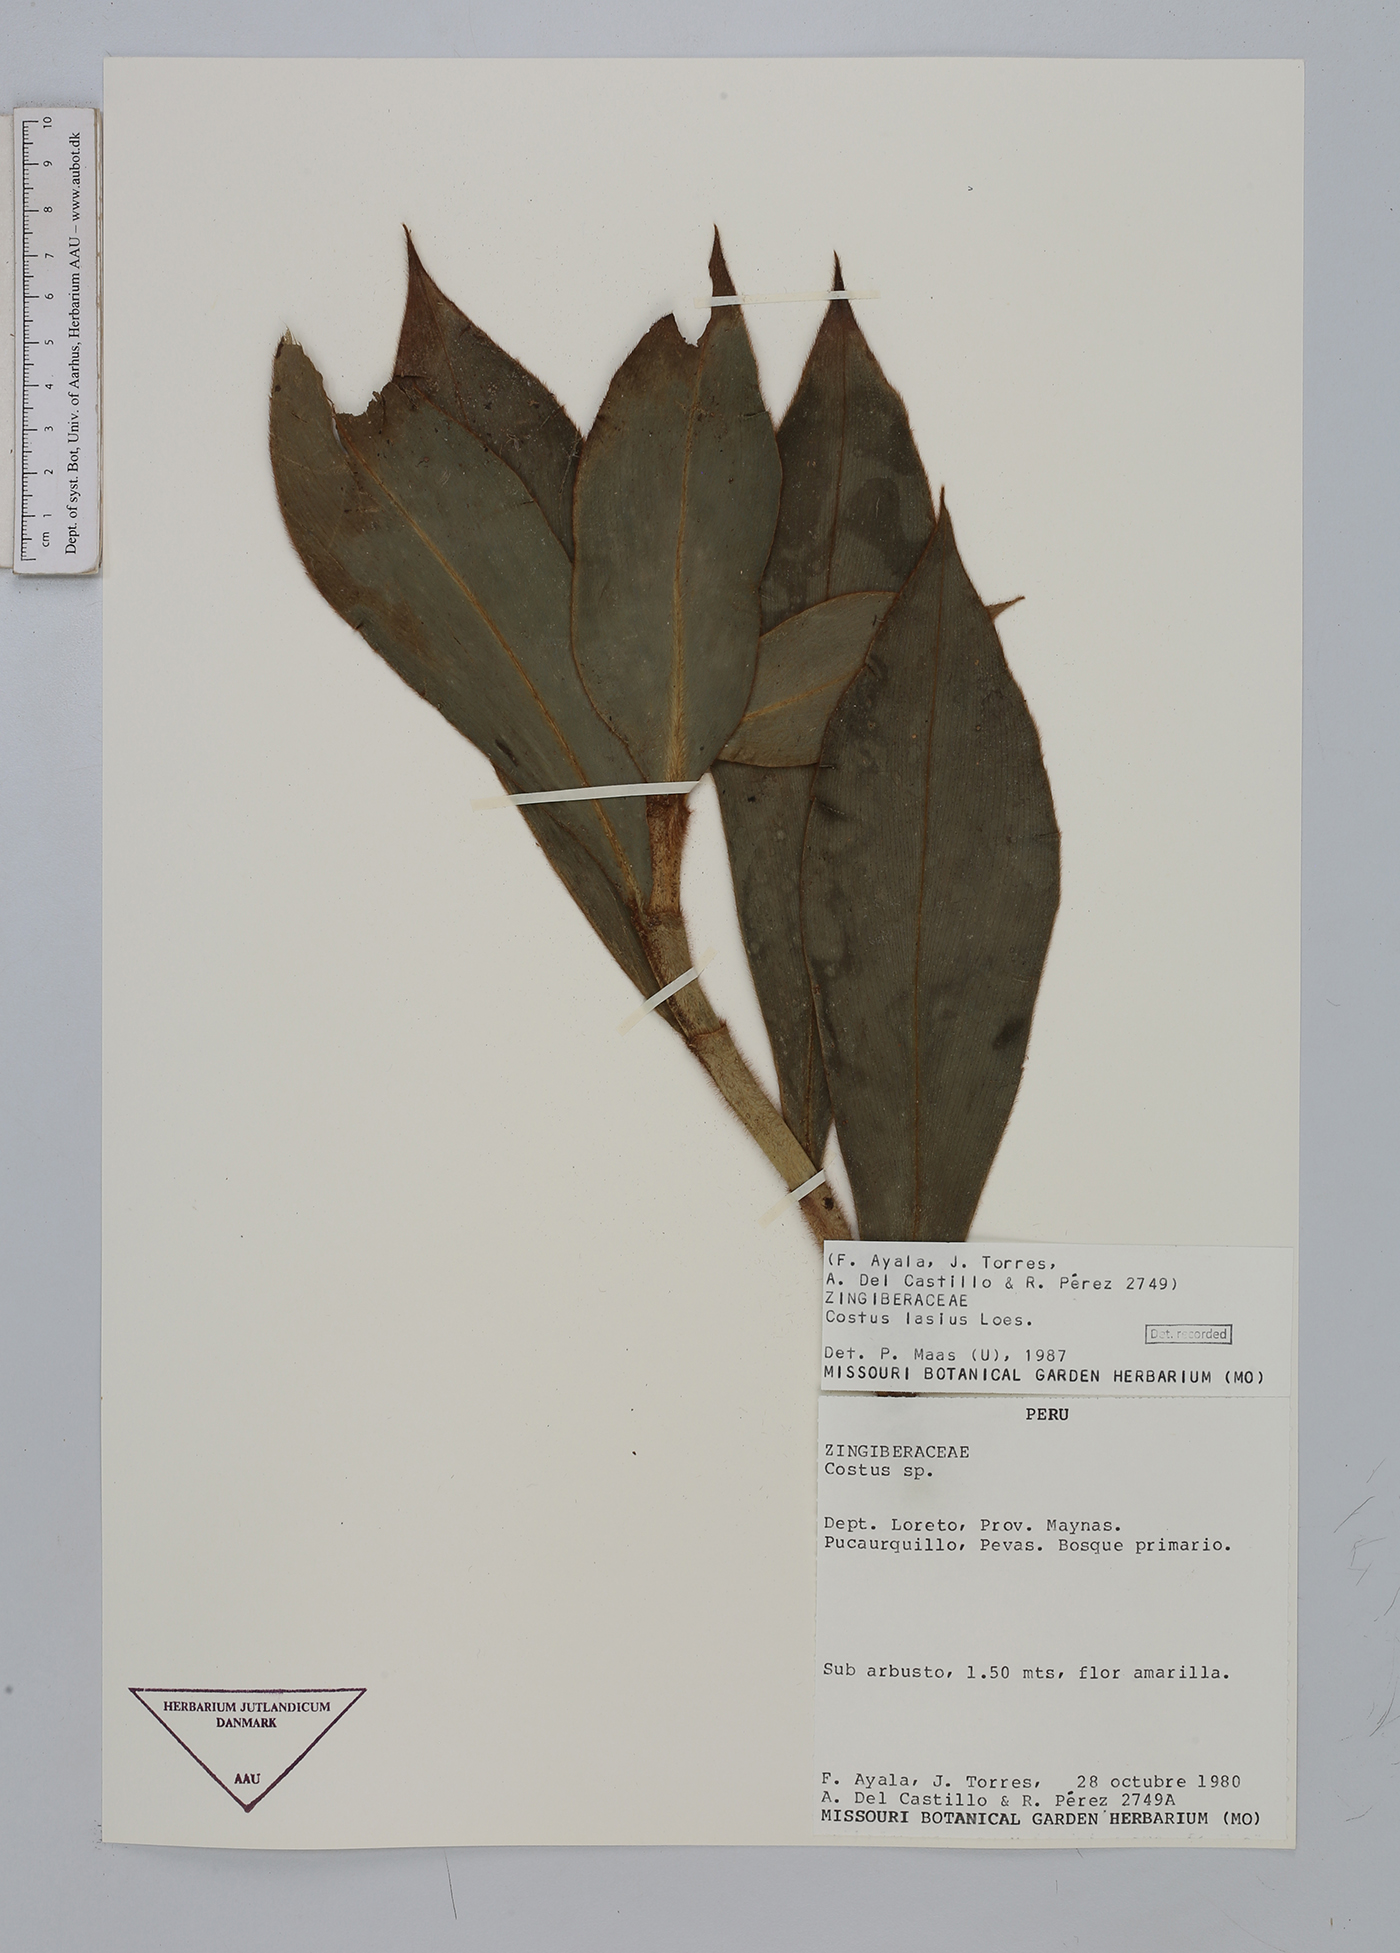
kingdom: Plantae
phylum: Tracheophyta
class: Liliopsida
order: Zingiberales
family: Costaceae
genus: Costus
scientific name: Costus lasius
